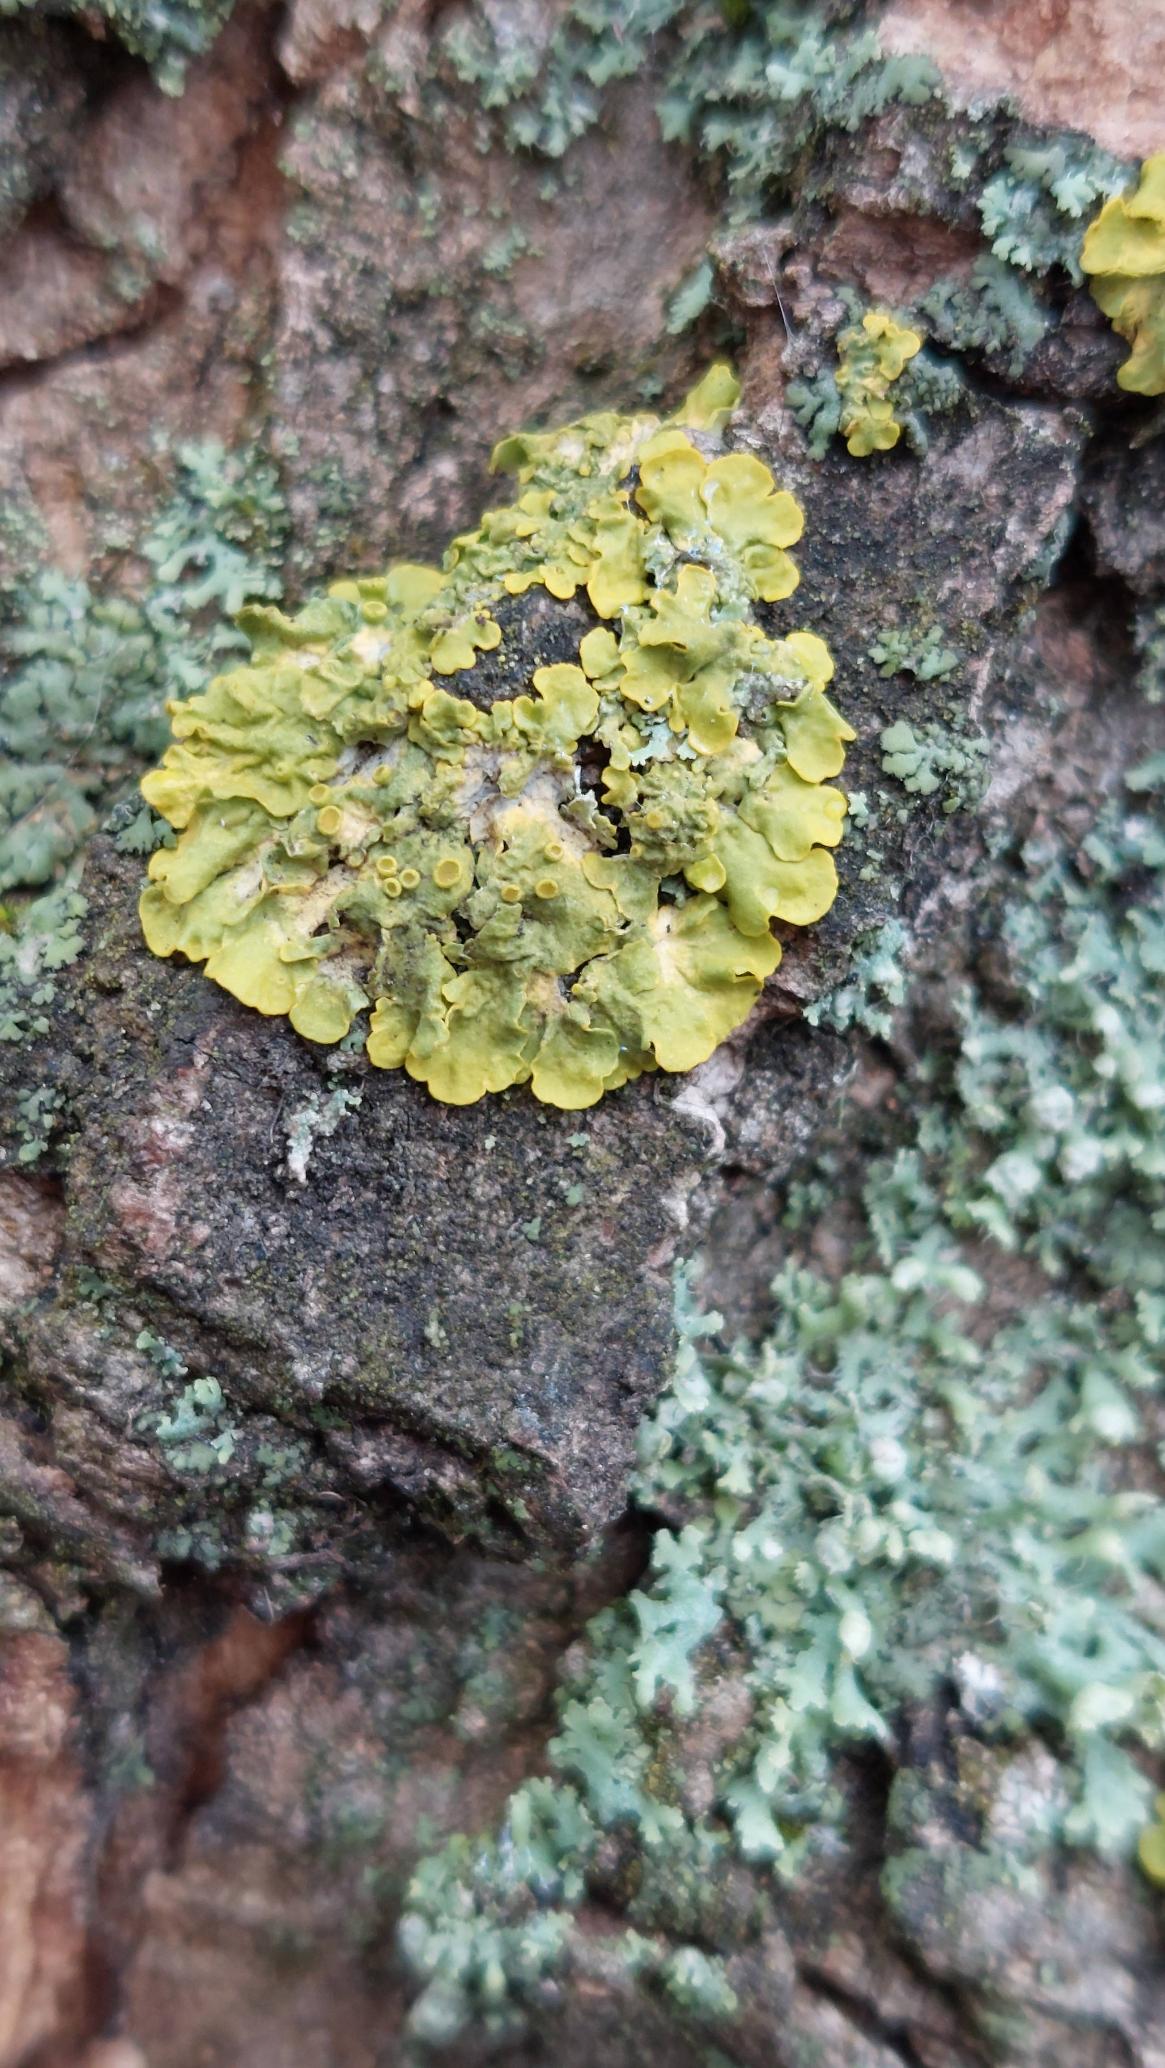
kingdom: Fungi
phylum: Ascomycota
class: Lecanoromycetes
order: Teloschistales
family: Teloschistaceae
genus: Xanthoria
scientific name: Xanthoria parietina
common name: Almindelig væggelav
